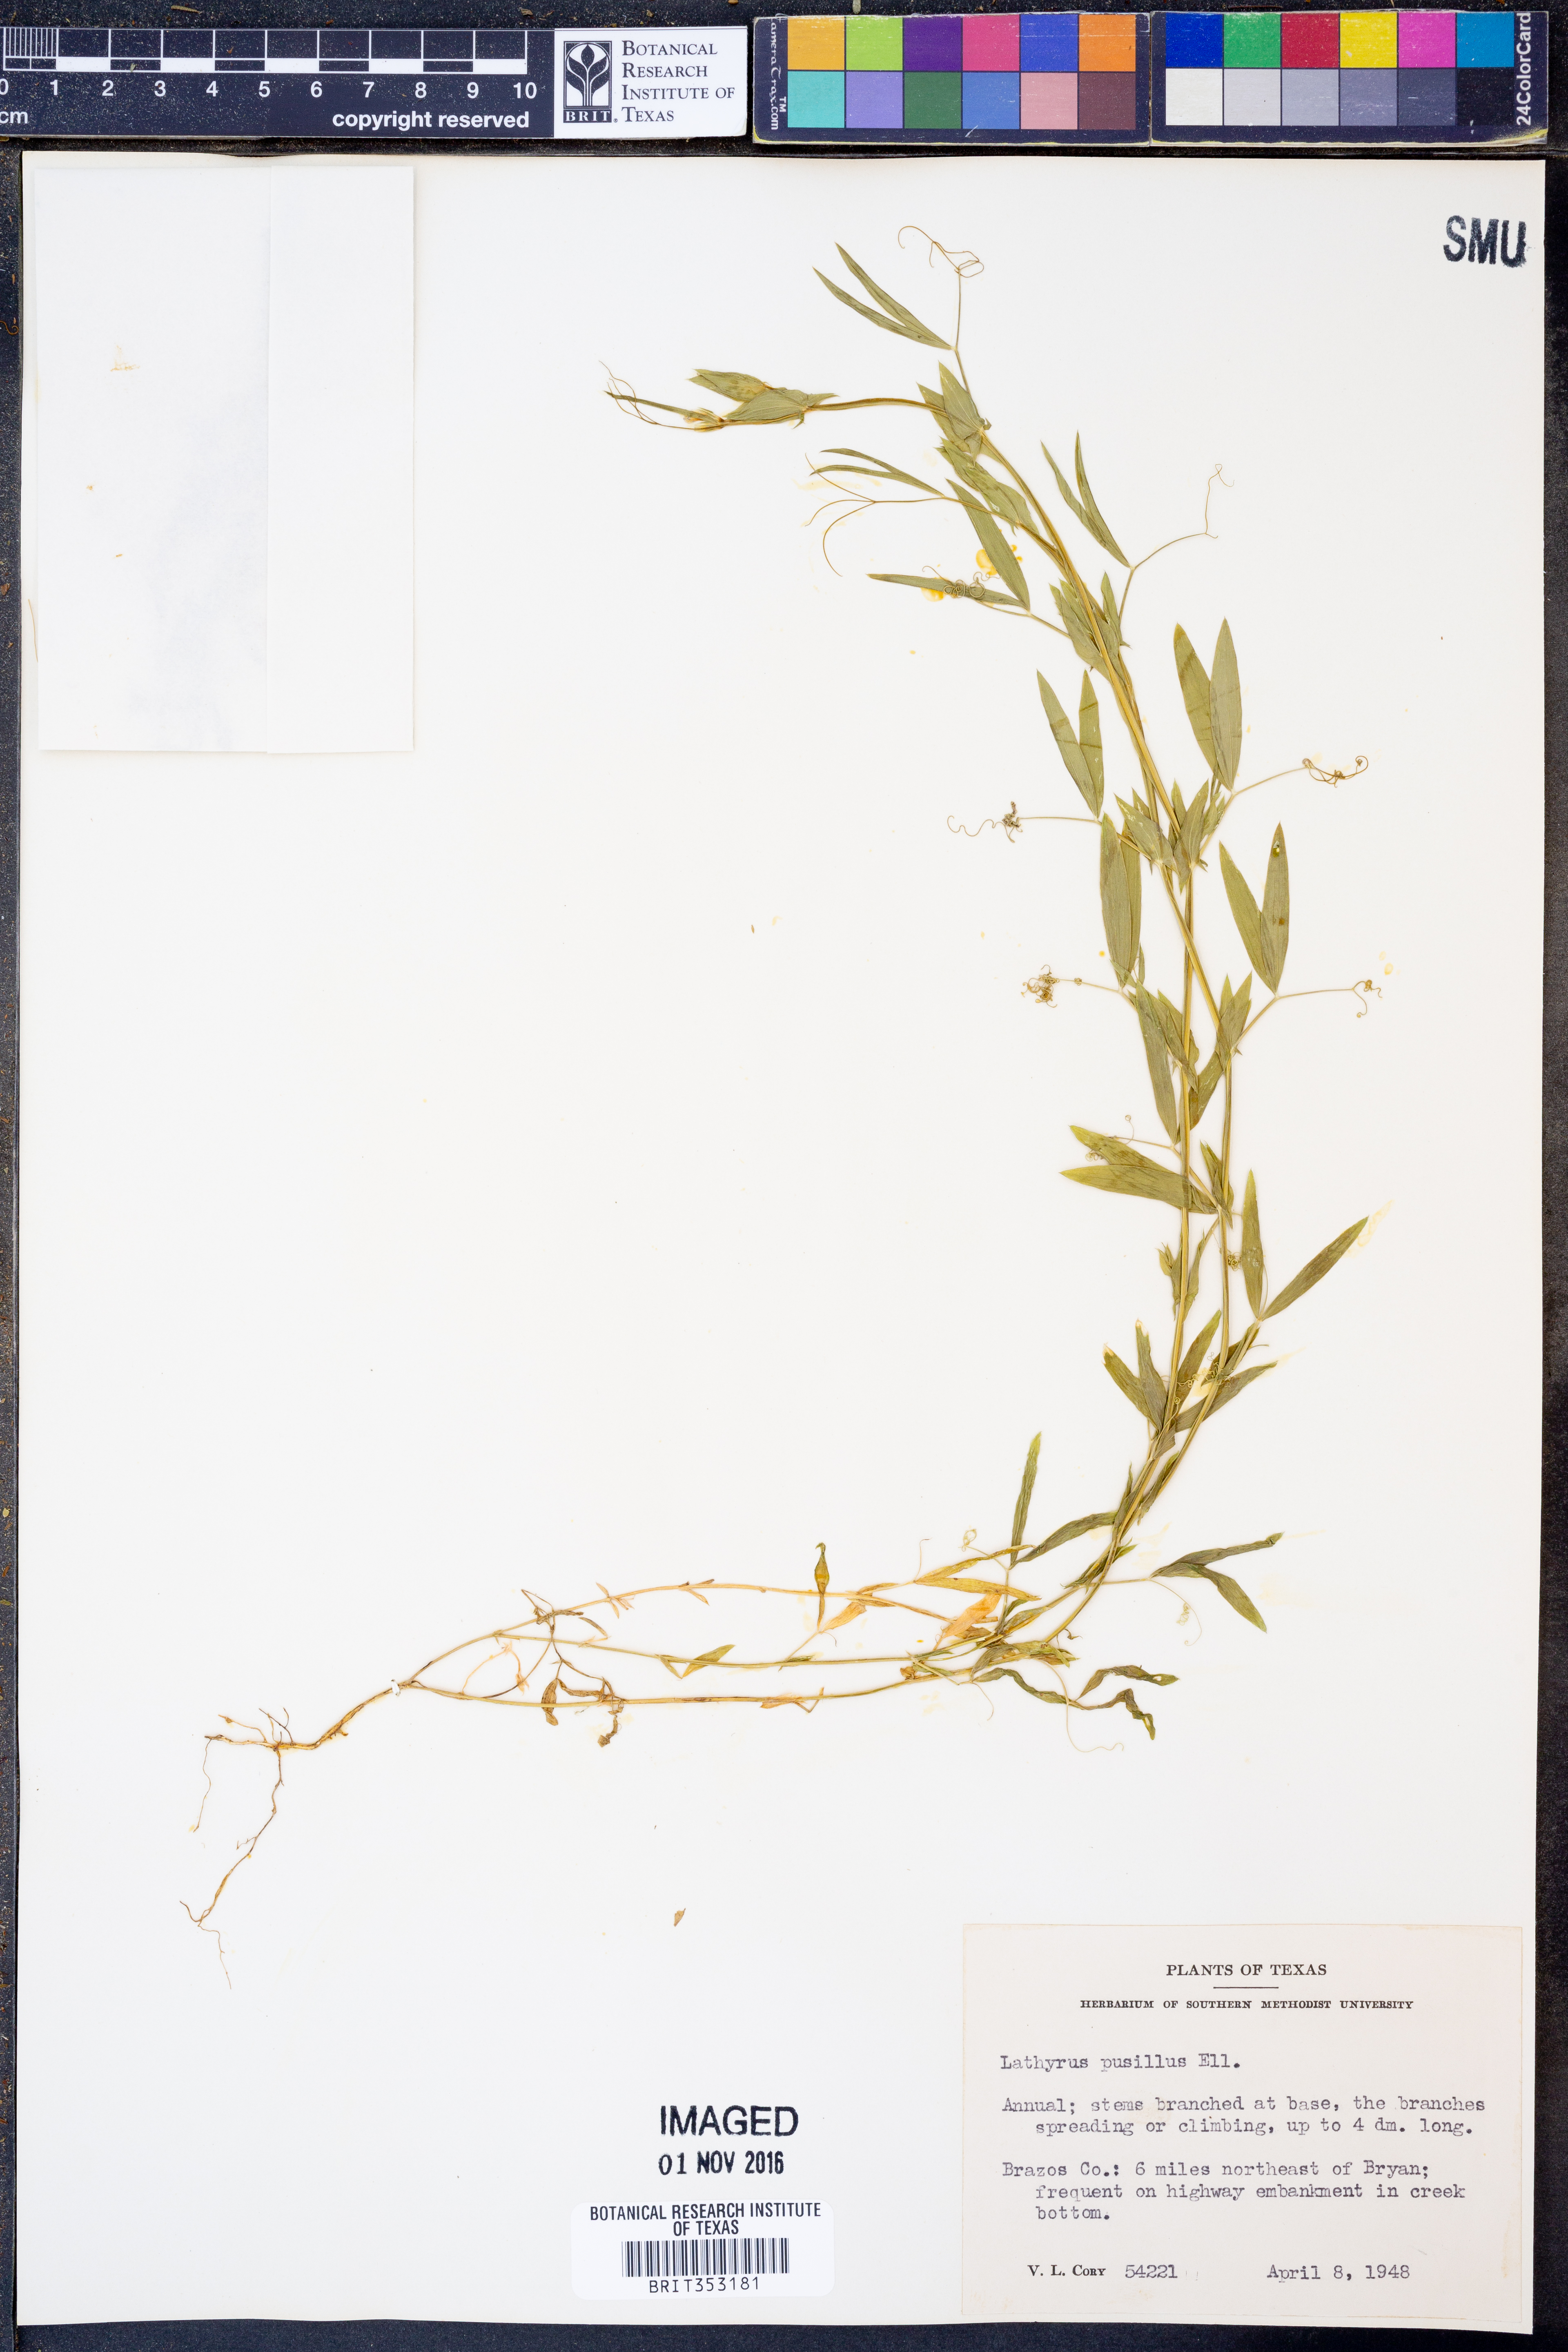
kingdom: Plantae
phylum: Tracheophyta
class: Magnoliopsida
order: Fabales
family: Fabaceae
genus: Lathyrus
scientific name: Lathyrus pusillus
